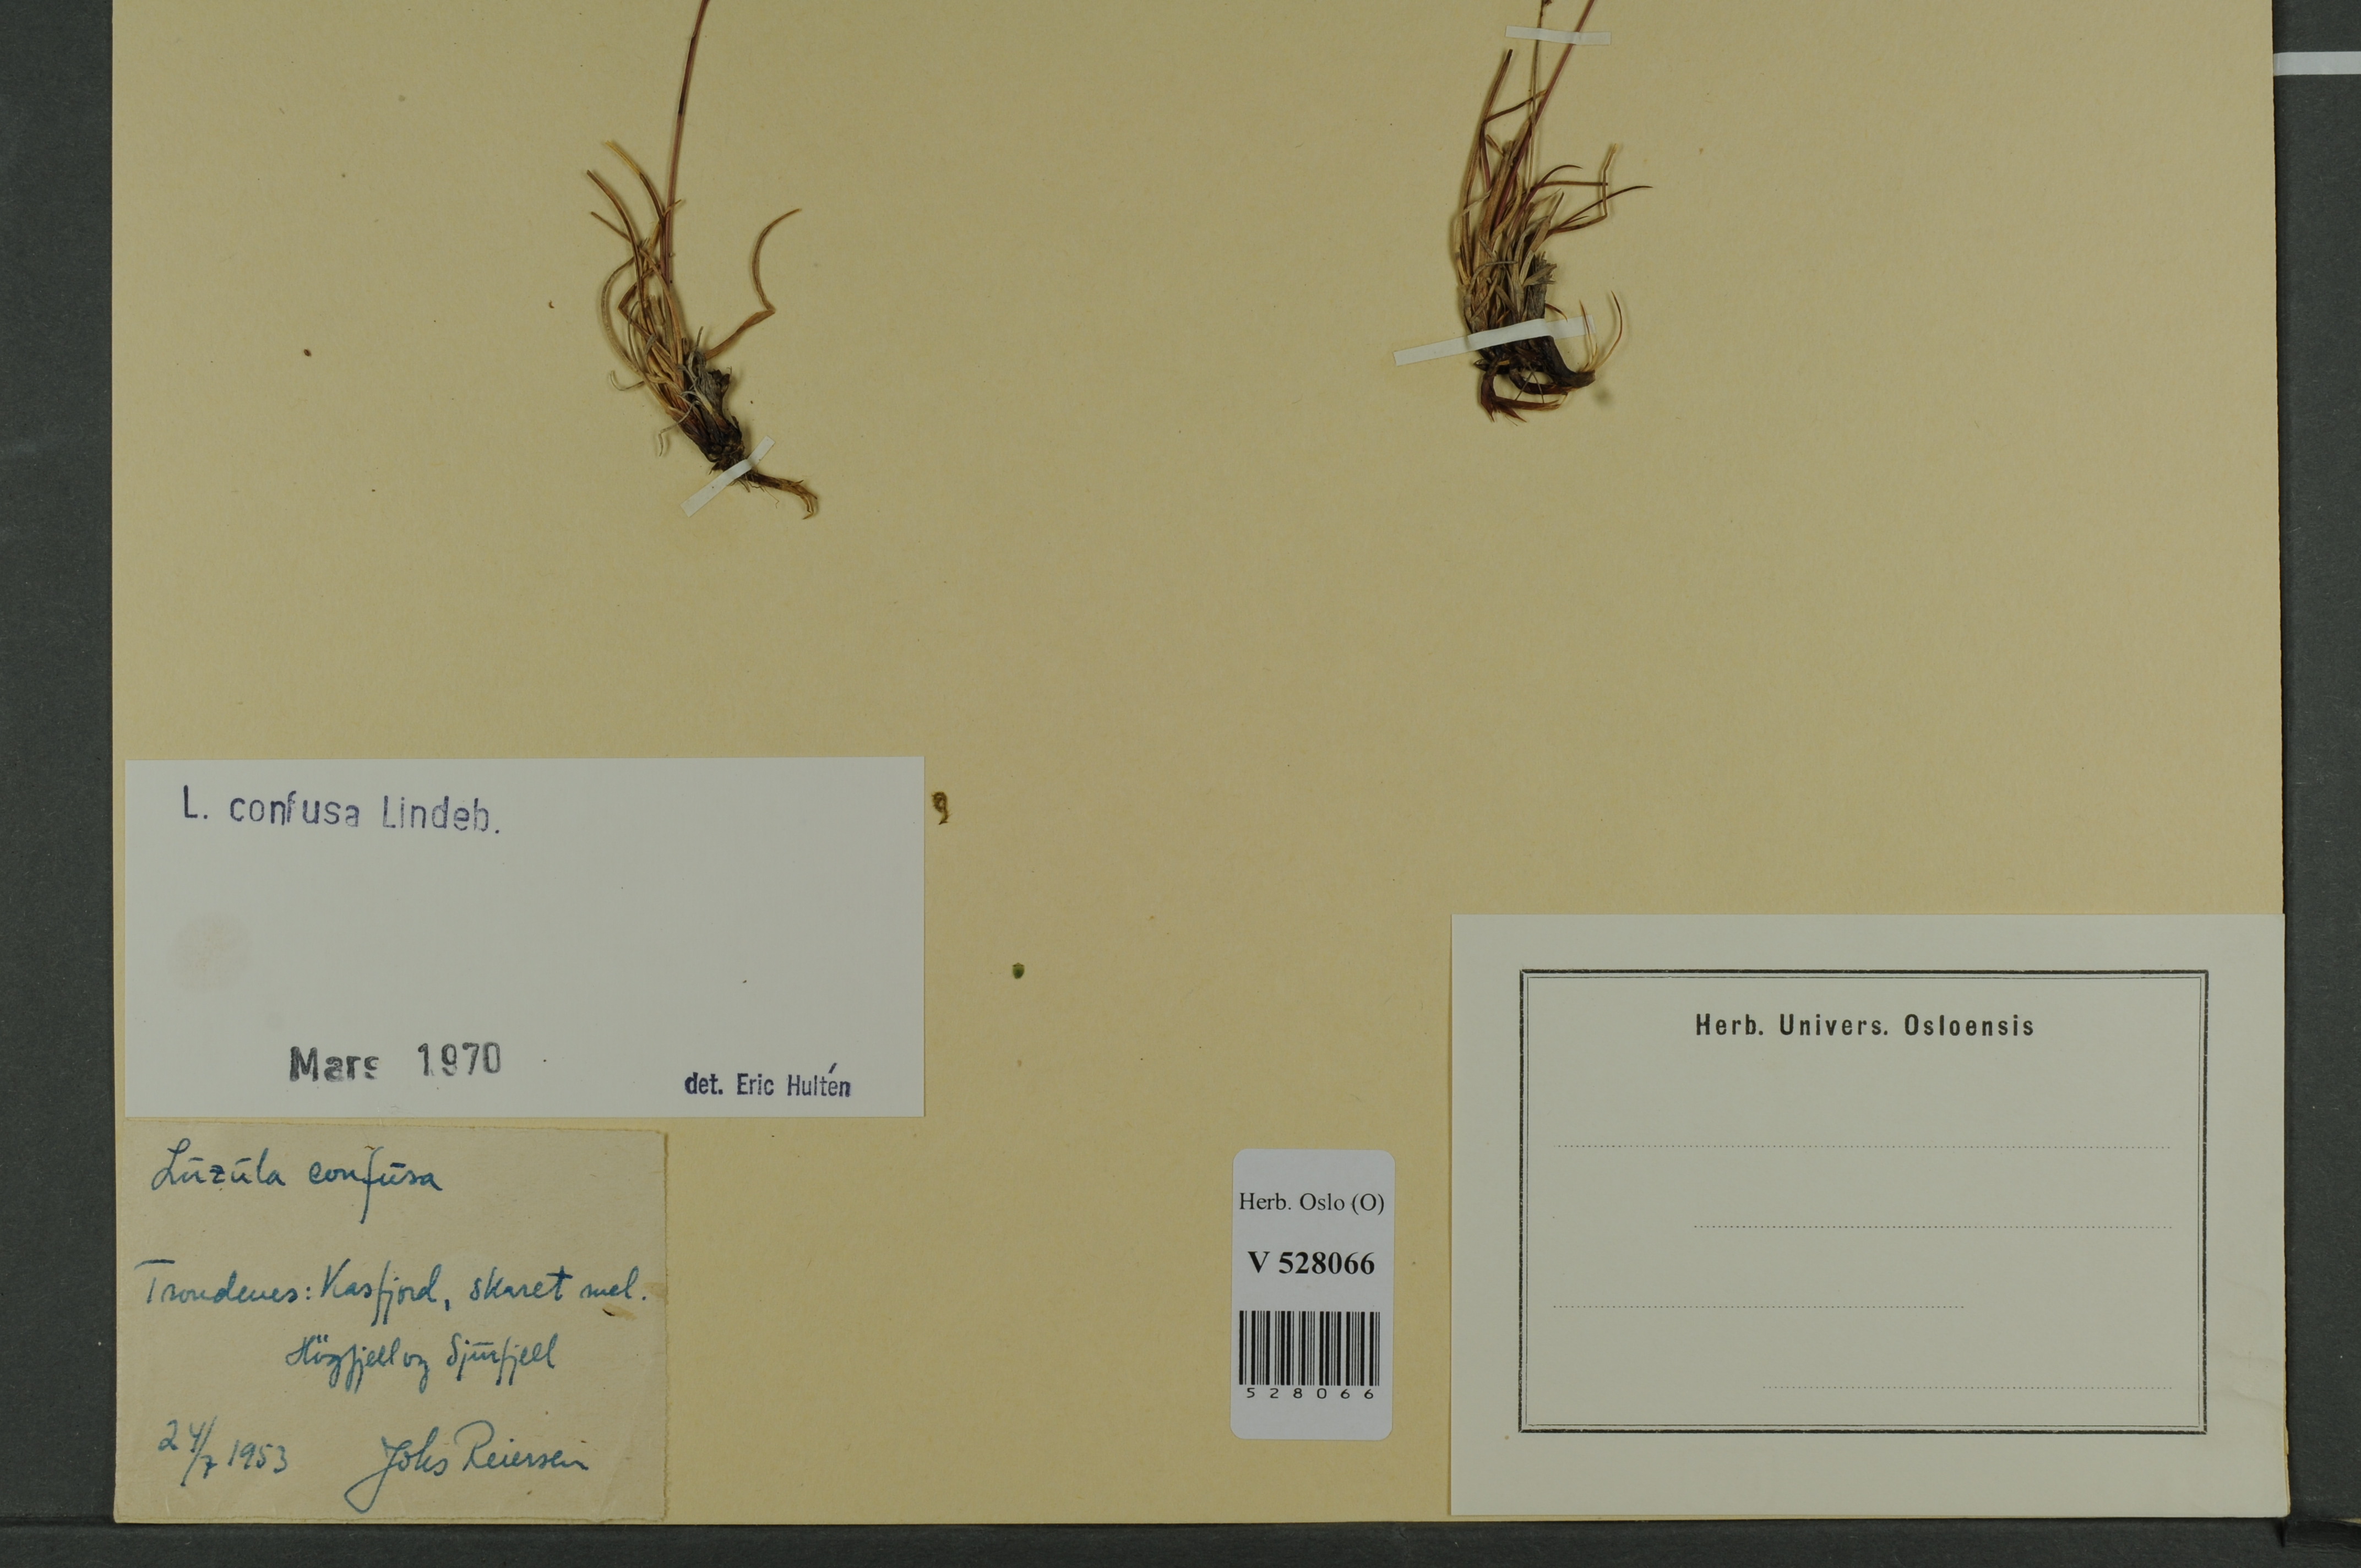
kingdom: Plantae
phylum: Tracheophyta
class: Liliopsida
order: Poales
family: Juncaceae
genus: Luzula
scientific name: Luzula confusa
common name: Northern wood rush
